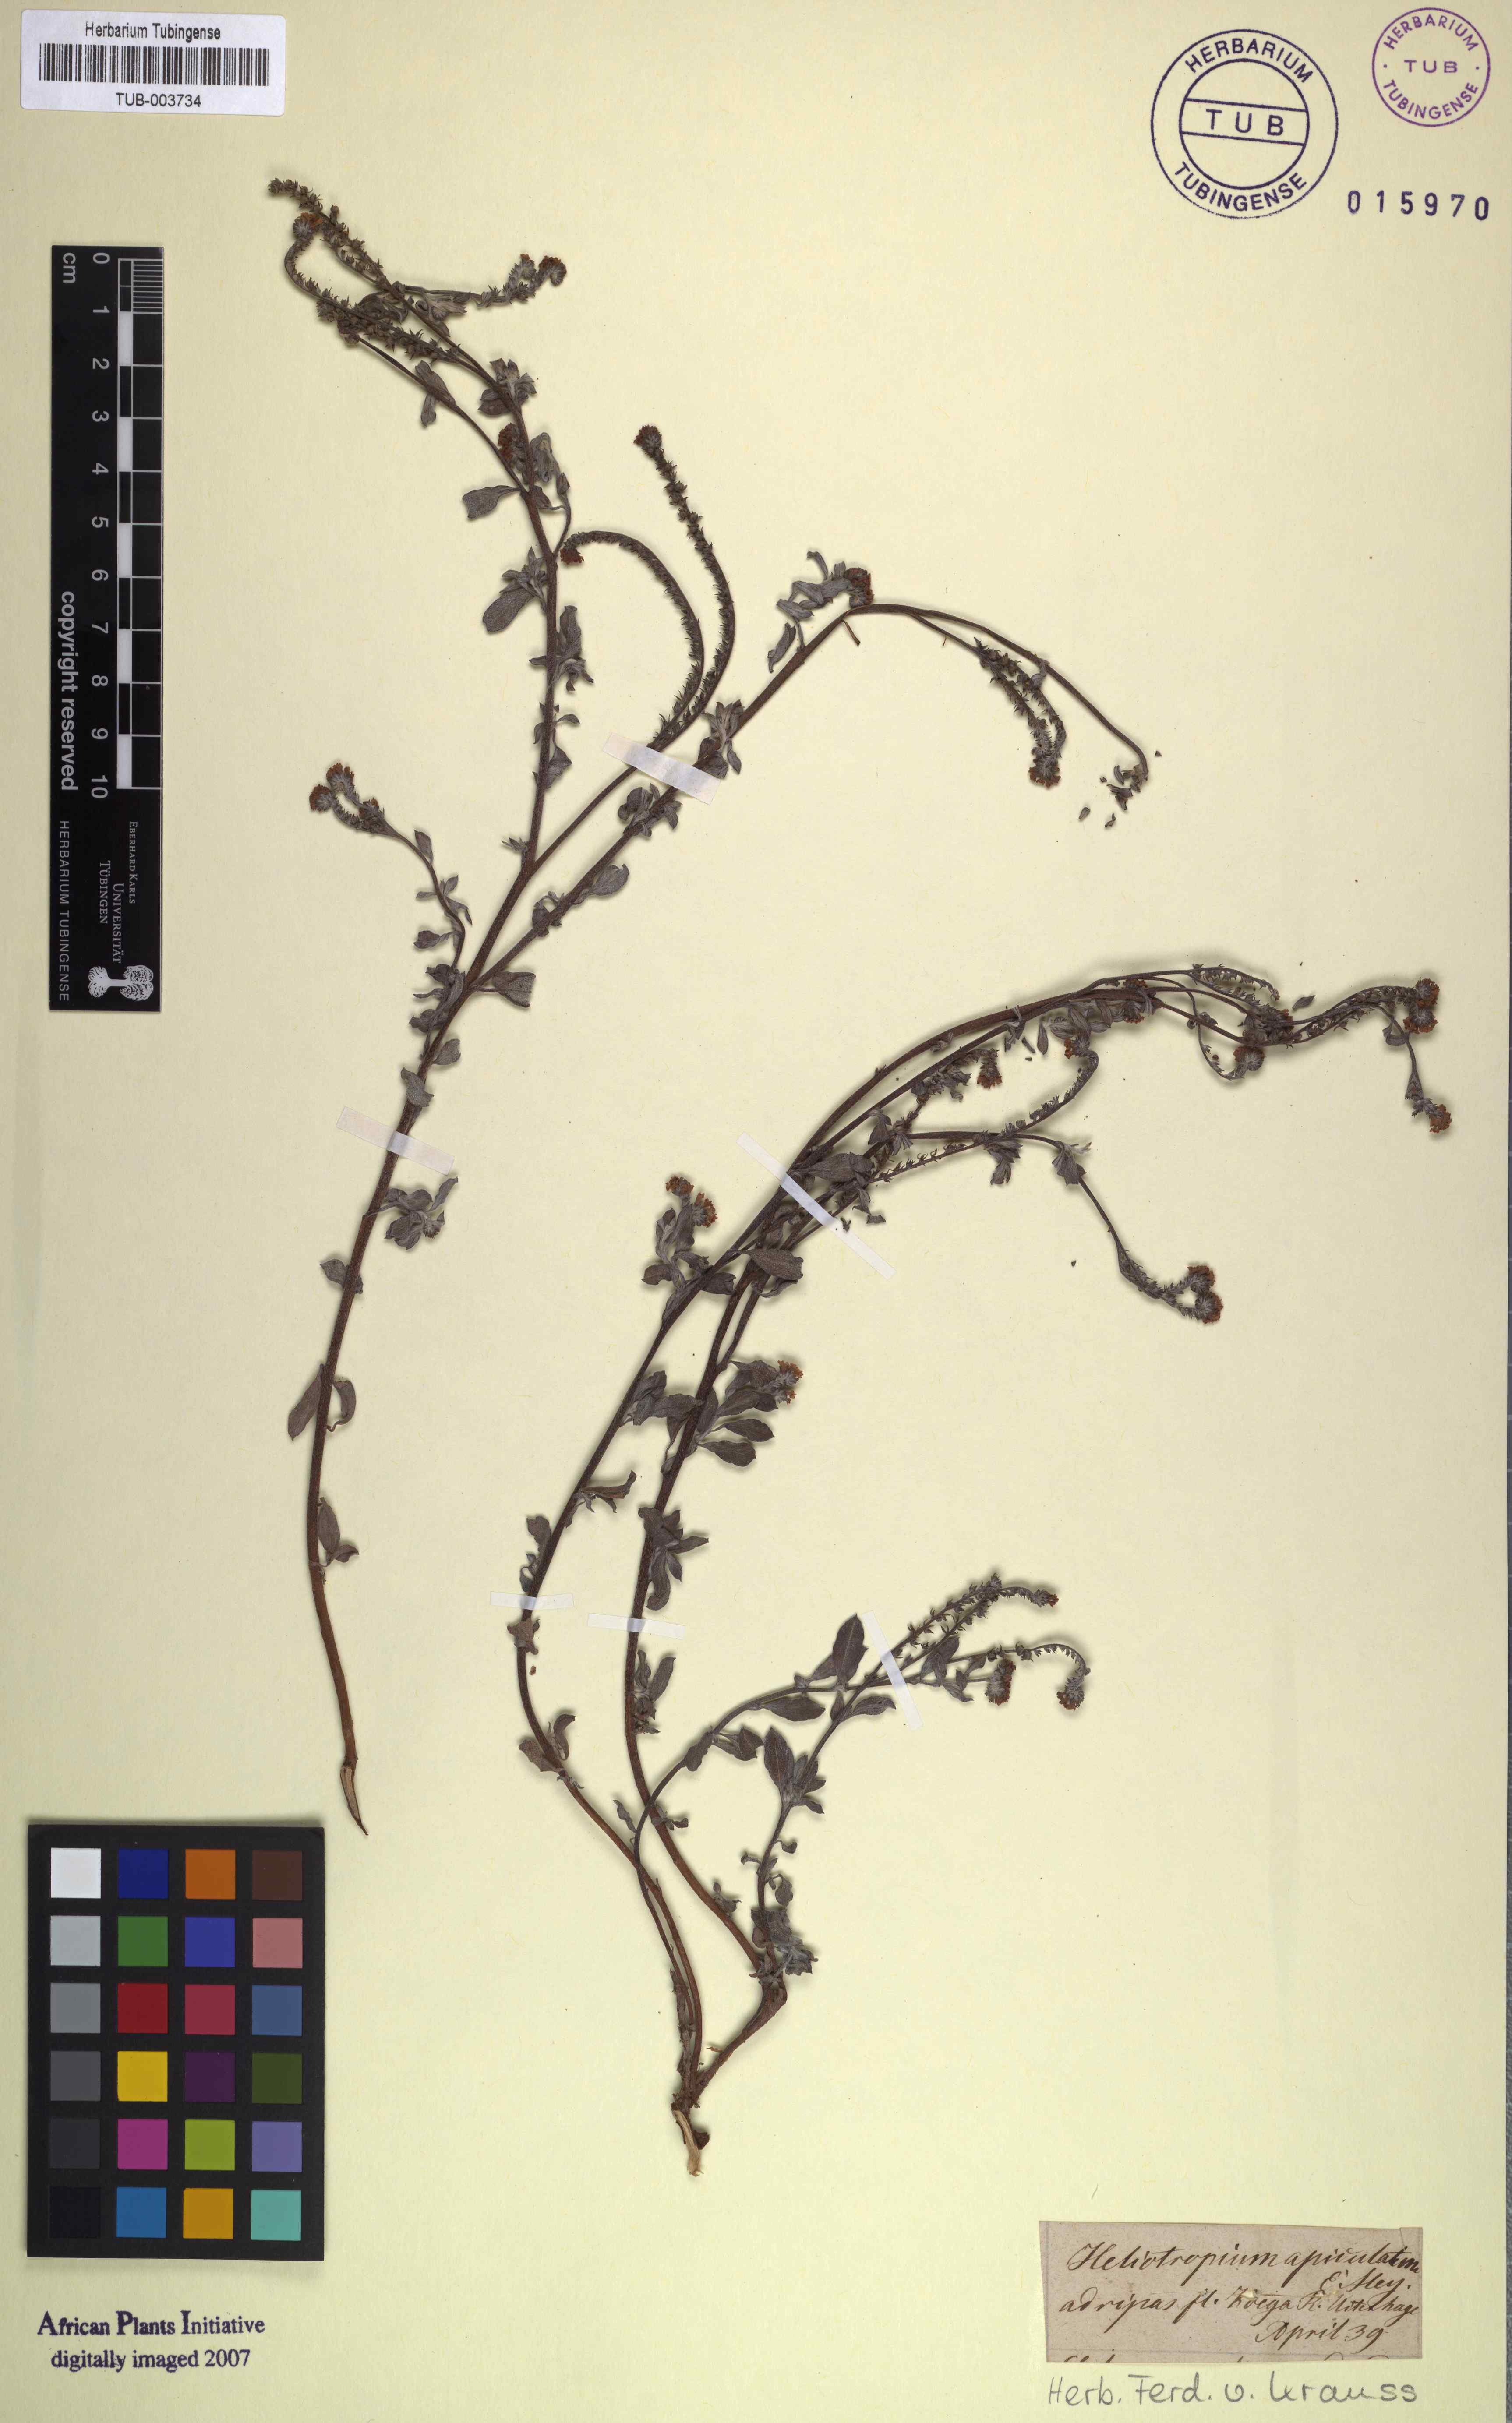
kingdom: Plantae
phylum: Tracheophyta
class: Magnoliopsida
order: Boraginales
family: Heliotropiaceae
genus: Euploca
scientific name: Euploca ovalifolia
